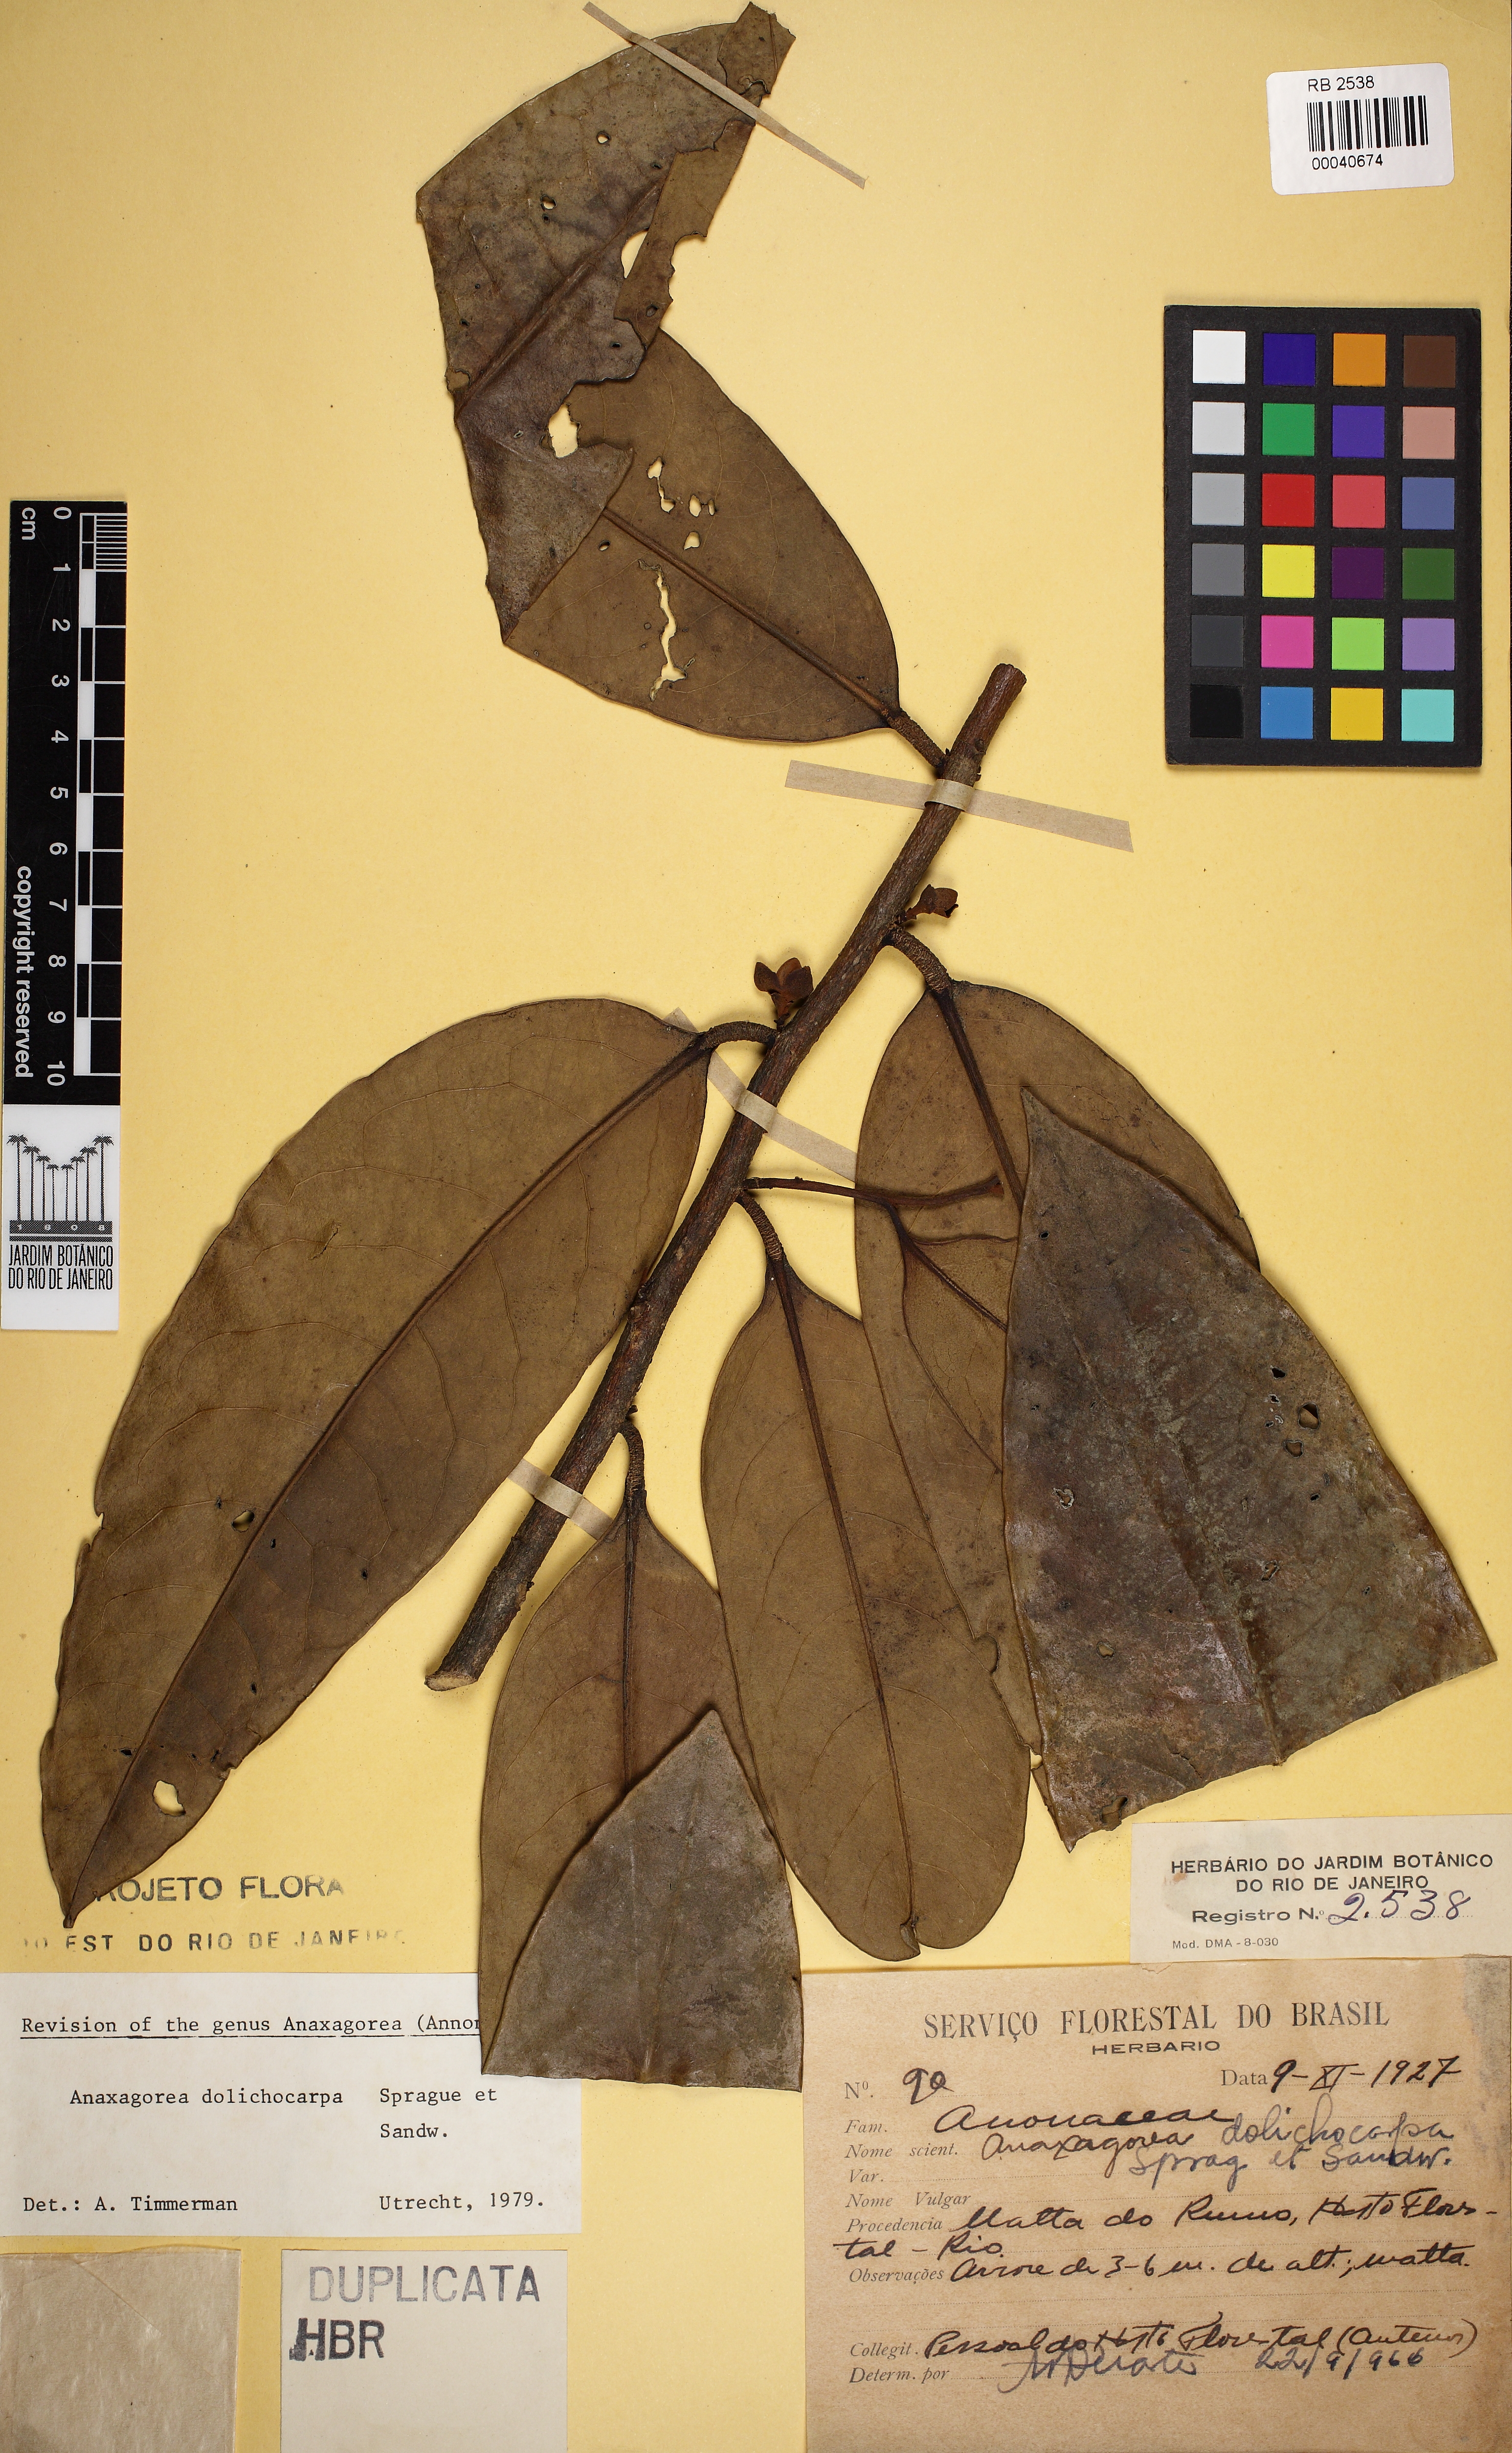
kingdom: Plantae
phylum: Tracheophyta
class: Magnoliopsida
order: Magnoliales
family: Annonaceae
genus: Anaxagorea
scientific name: Anaxagorea dolichocarpa
